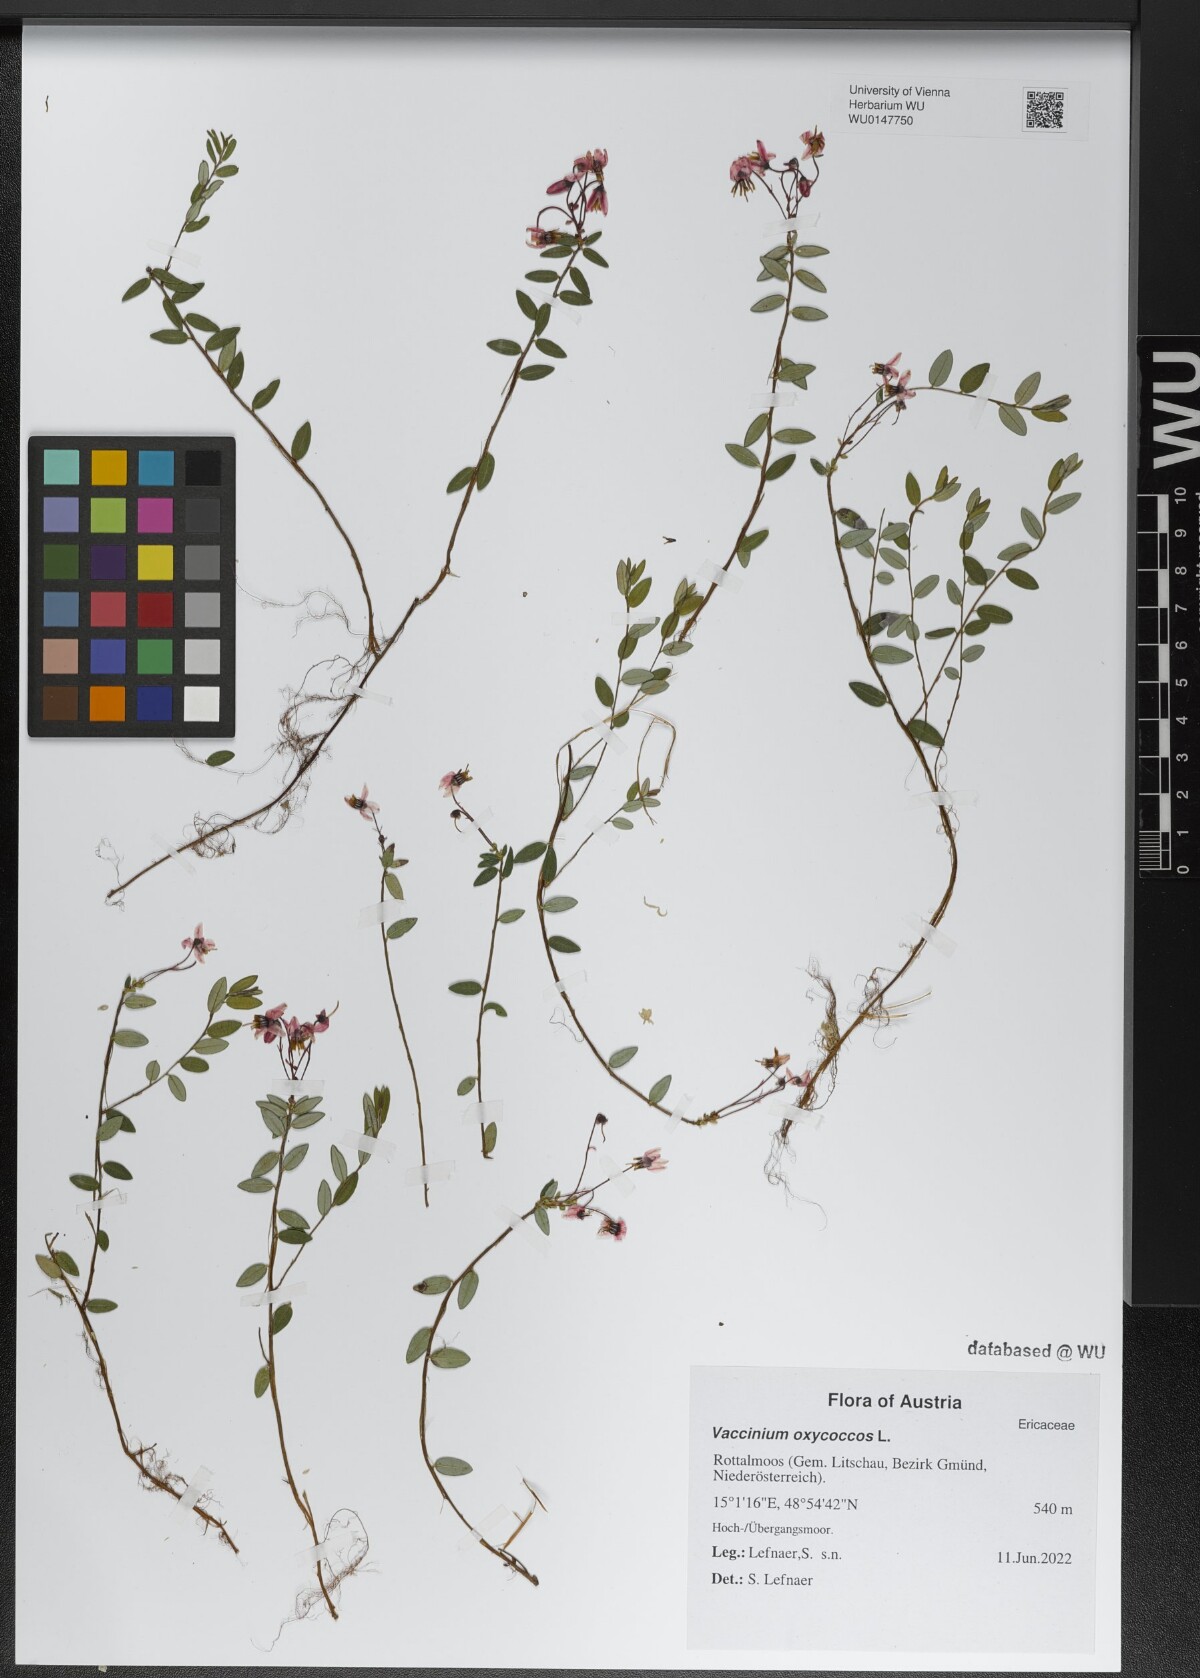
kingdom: Plantae
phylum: Tracheophyta
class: Magnoliopsida
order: Ericales
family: Ericaceae
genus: Vaccinium
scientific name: Vaccinium oxycoccos
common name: Cranberry
